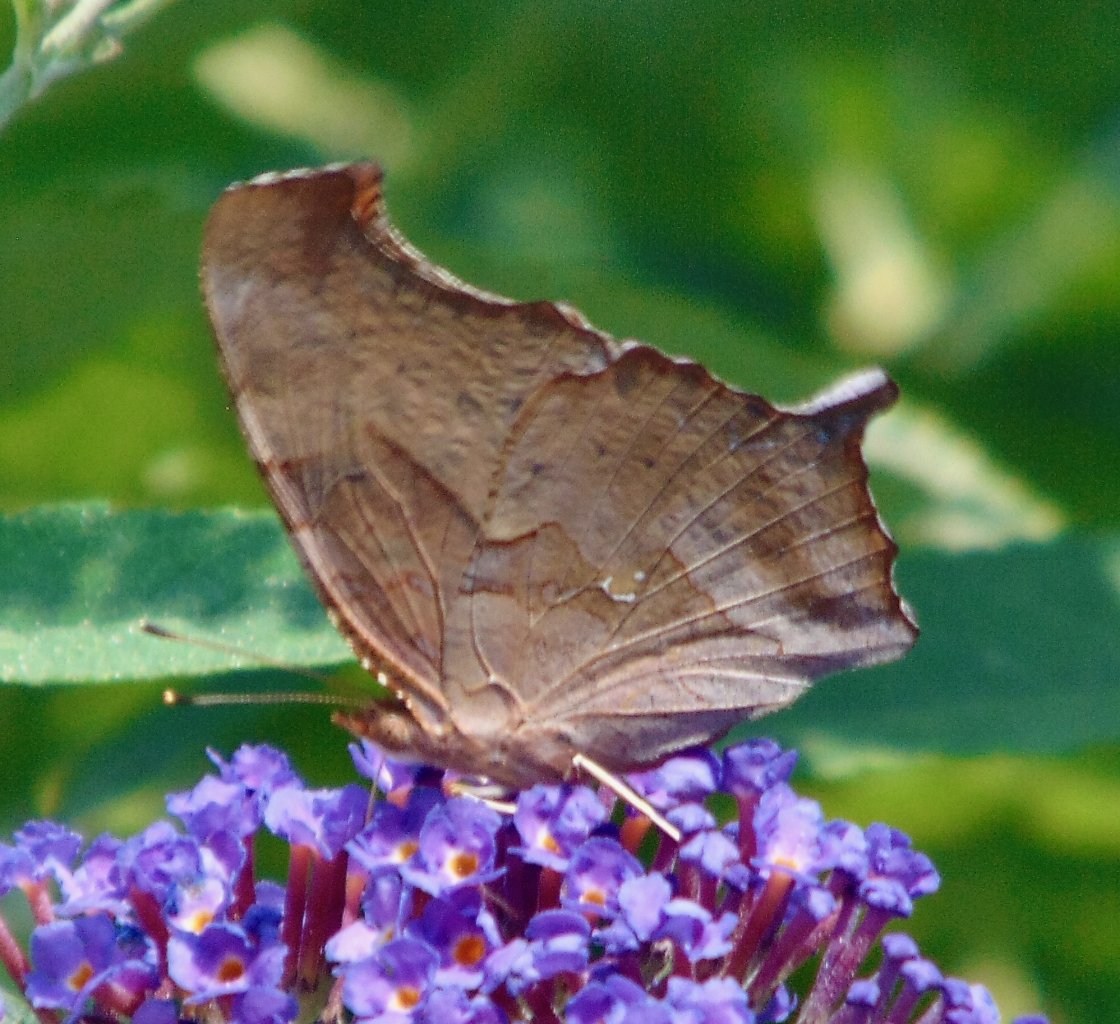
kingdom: Animalia
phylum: Arthropoda
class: Insecta
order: Lepidoptera
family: Nymphalidae
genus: Polygonia
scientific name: Polygonia interrogationis
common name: Question Mark
